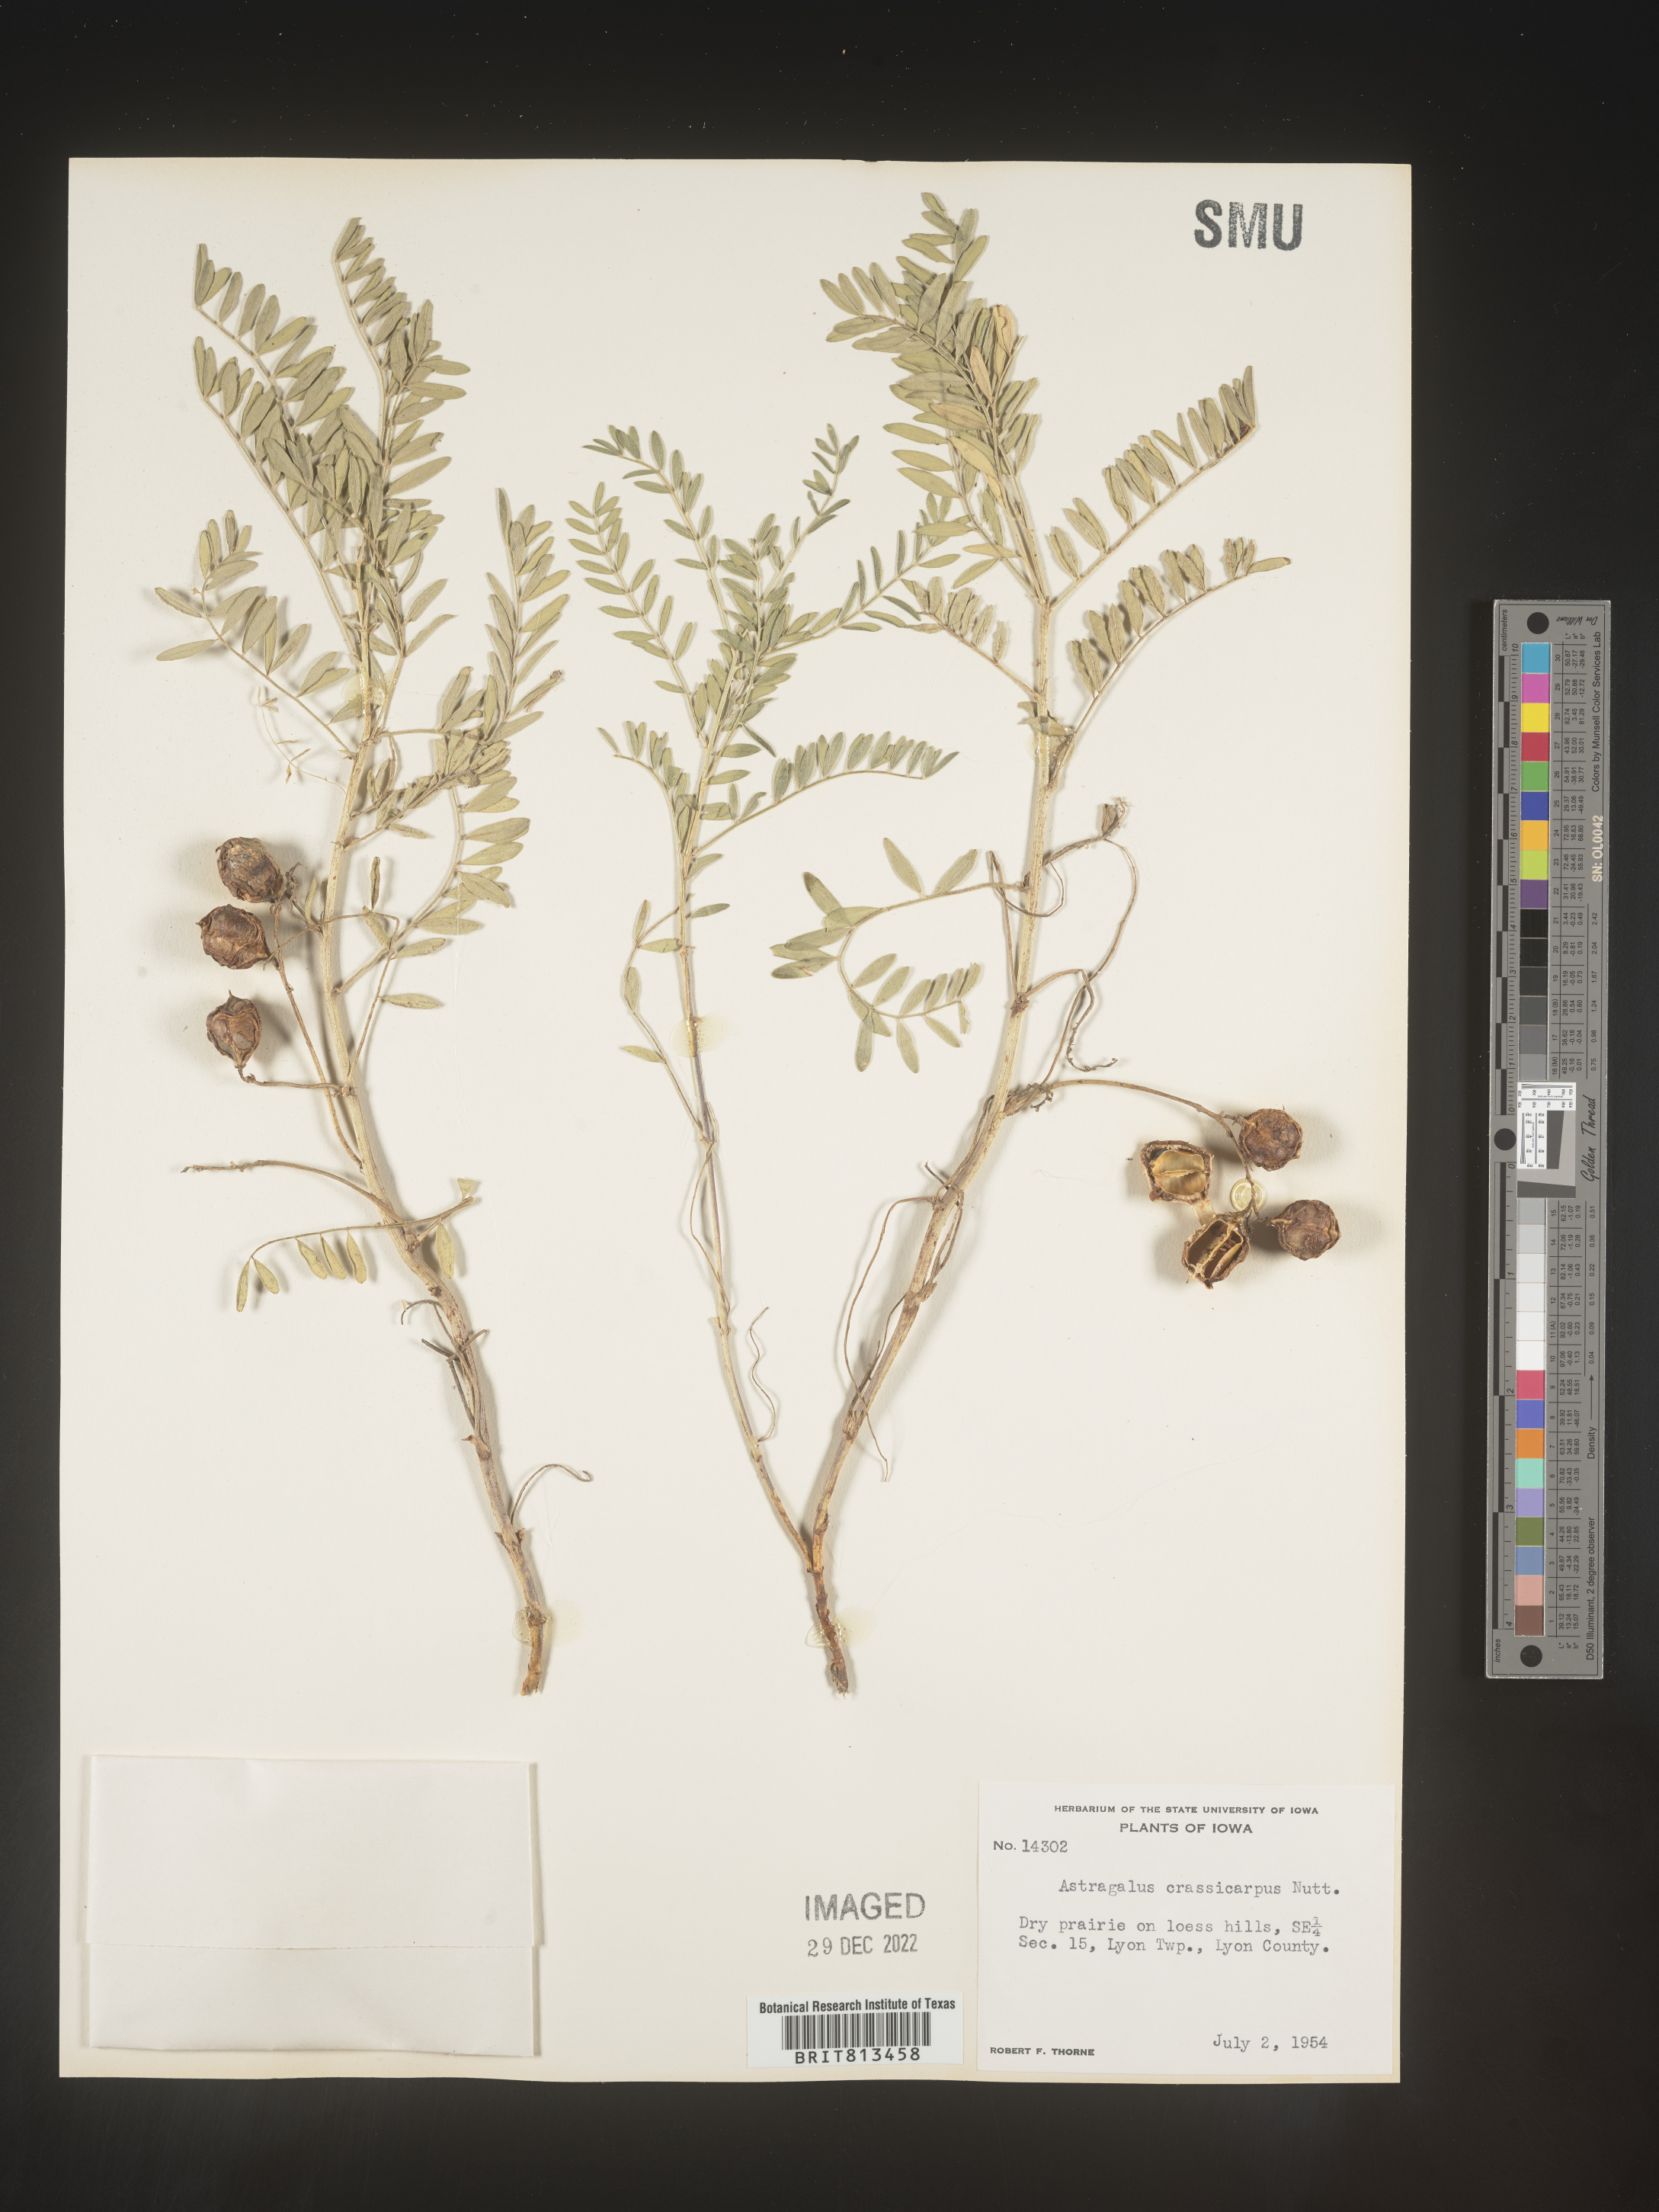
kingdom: Plantae
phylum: Tracheophyta
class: Magnoliopsida
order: Fabales
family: Fabaceae
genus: Astragalus
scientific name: Astragalus
